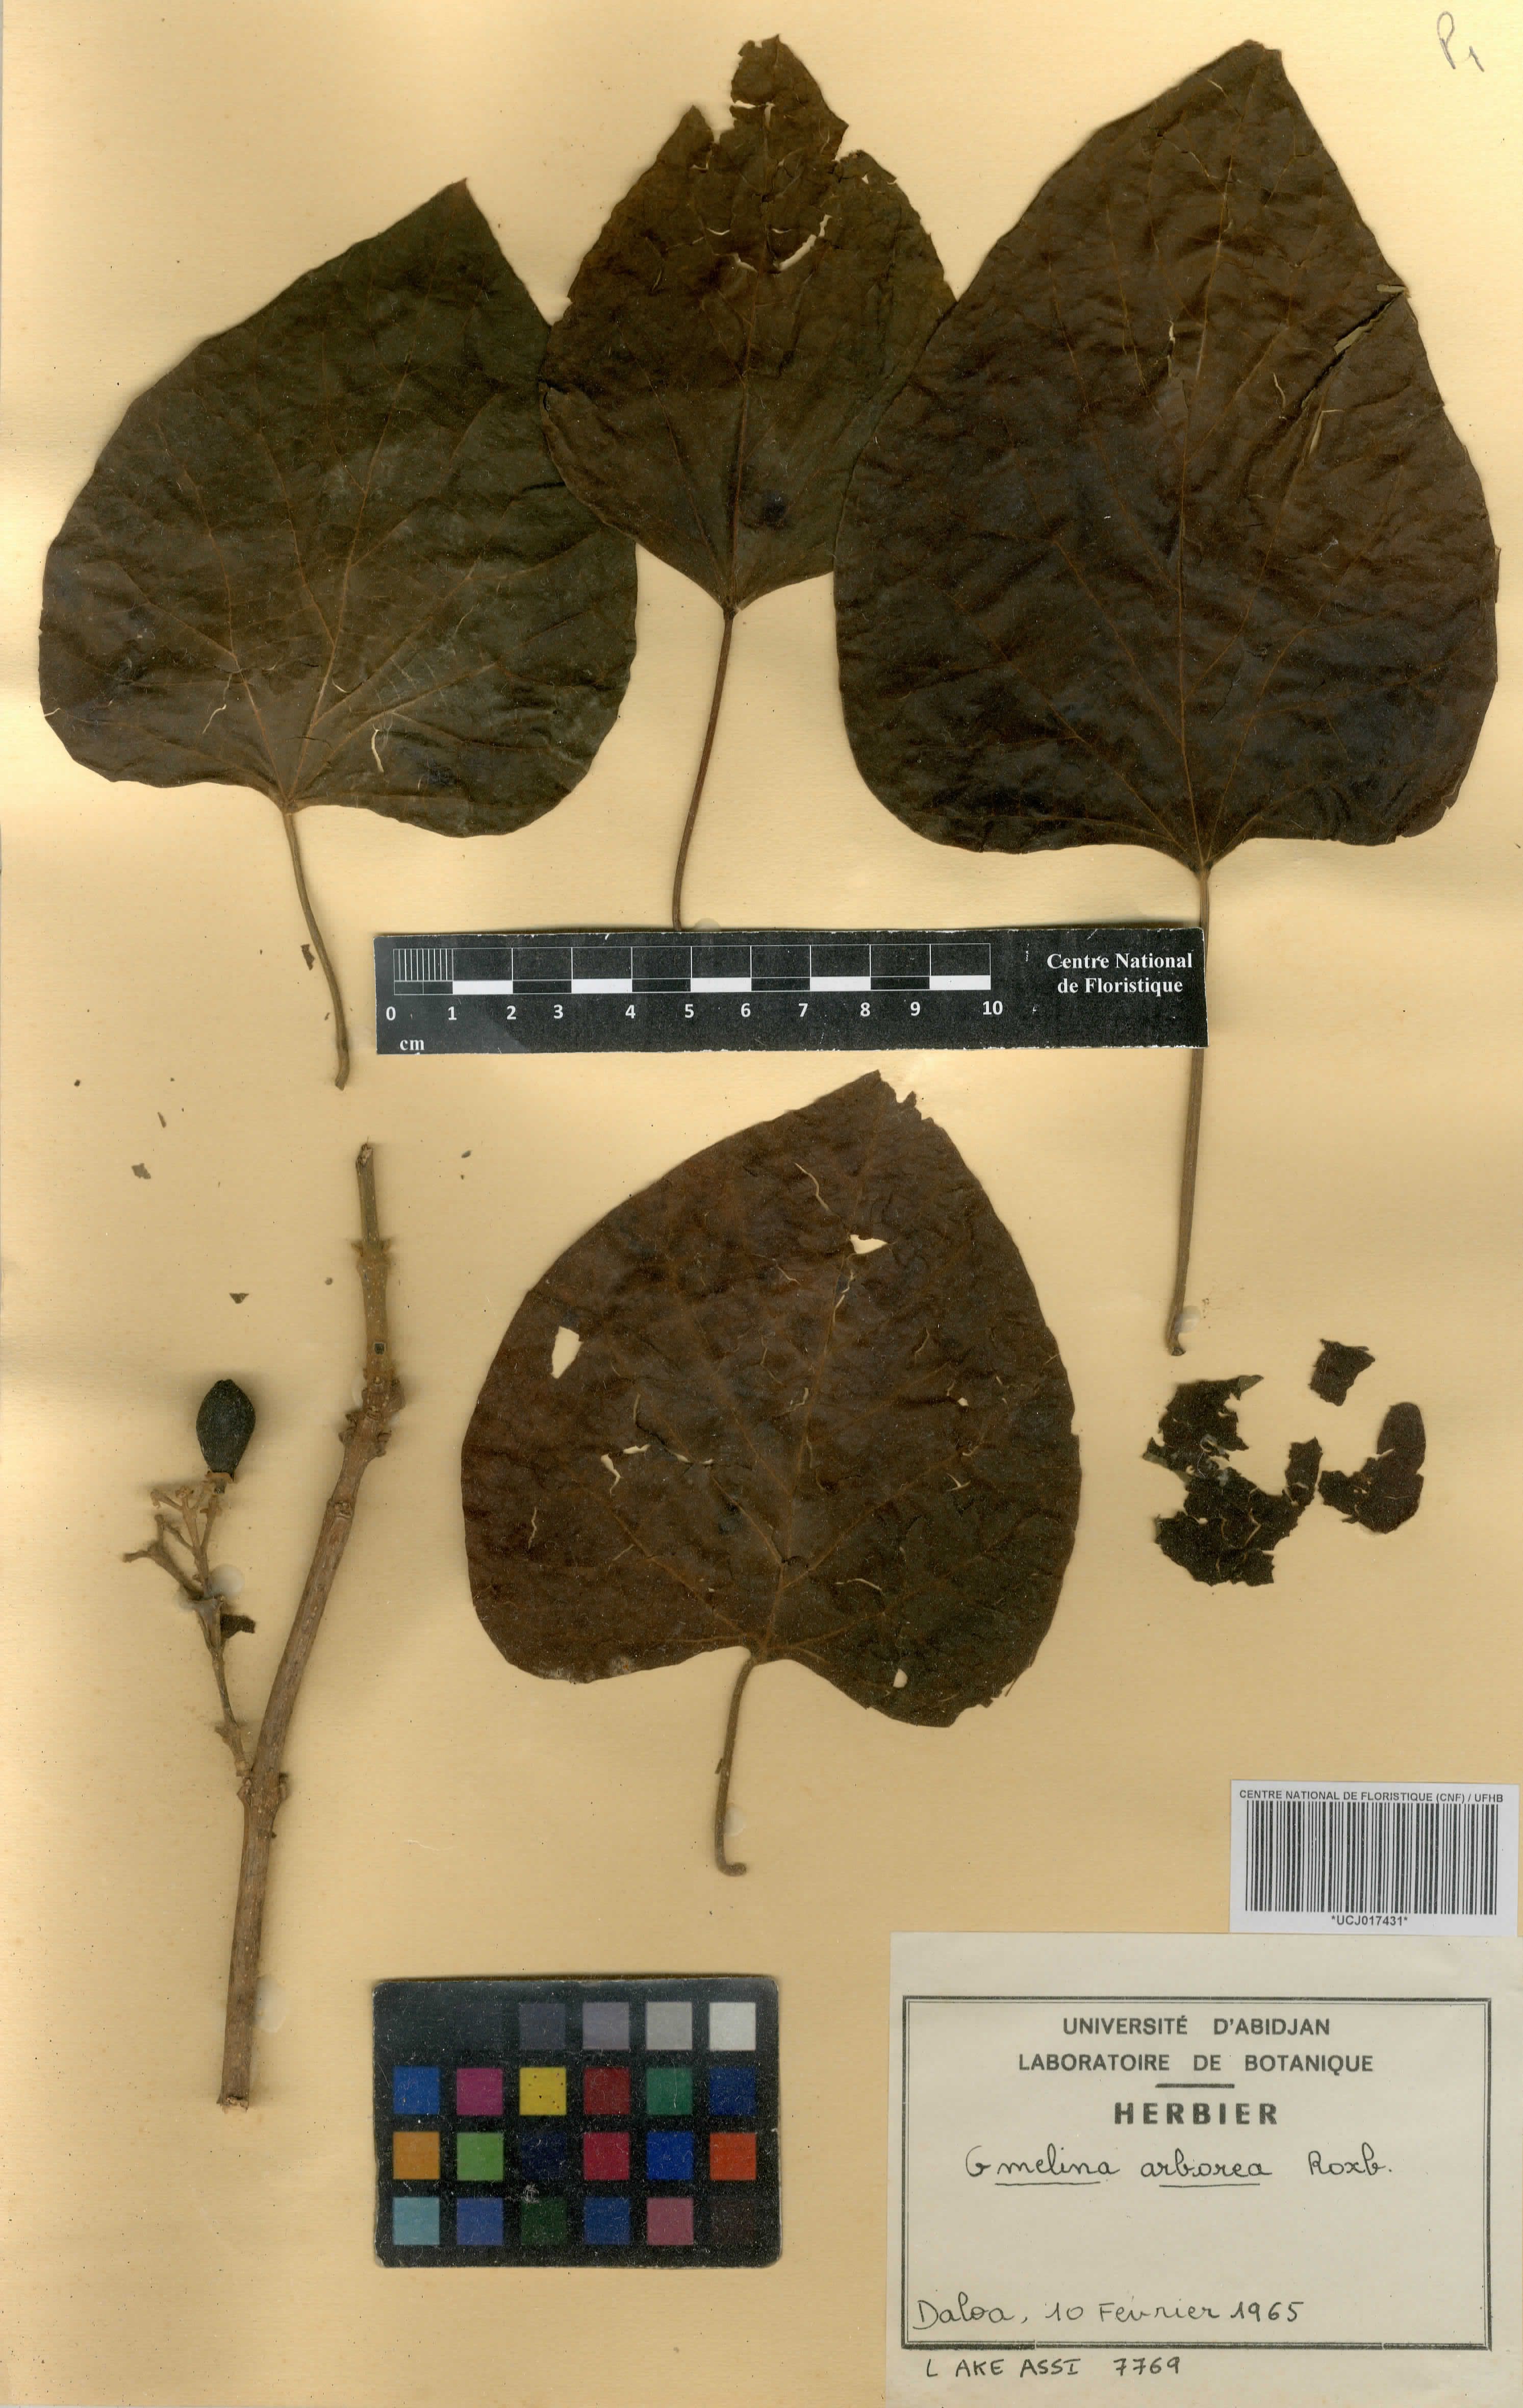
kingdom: Plantae
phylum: Tracheophyta
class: Magnoliopsida
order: Lamiales
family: Lamiaceae
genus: Gmelina
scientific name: Gmelina arborea
